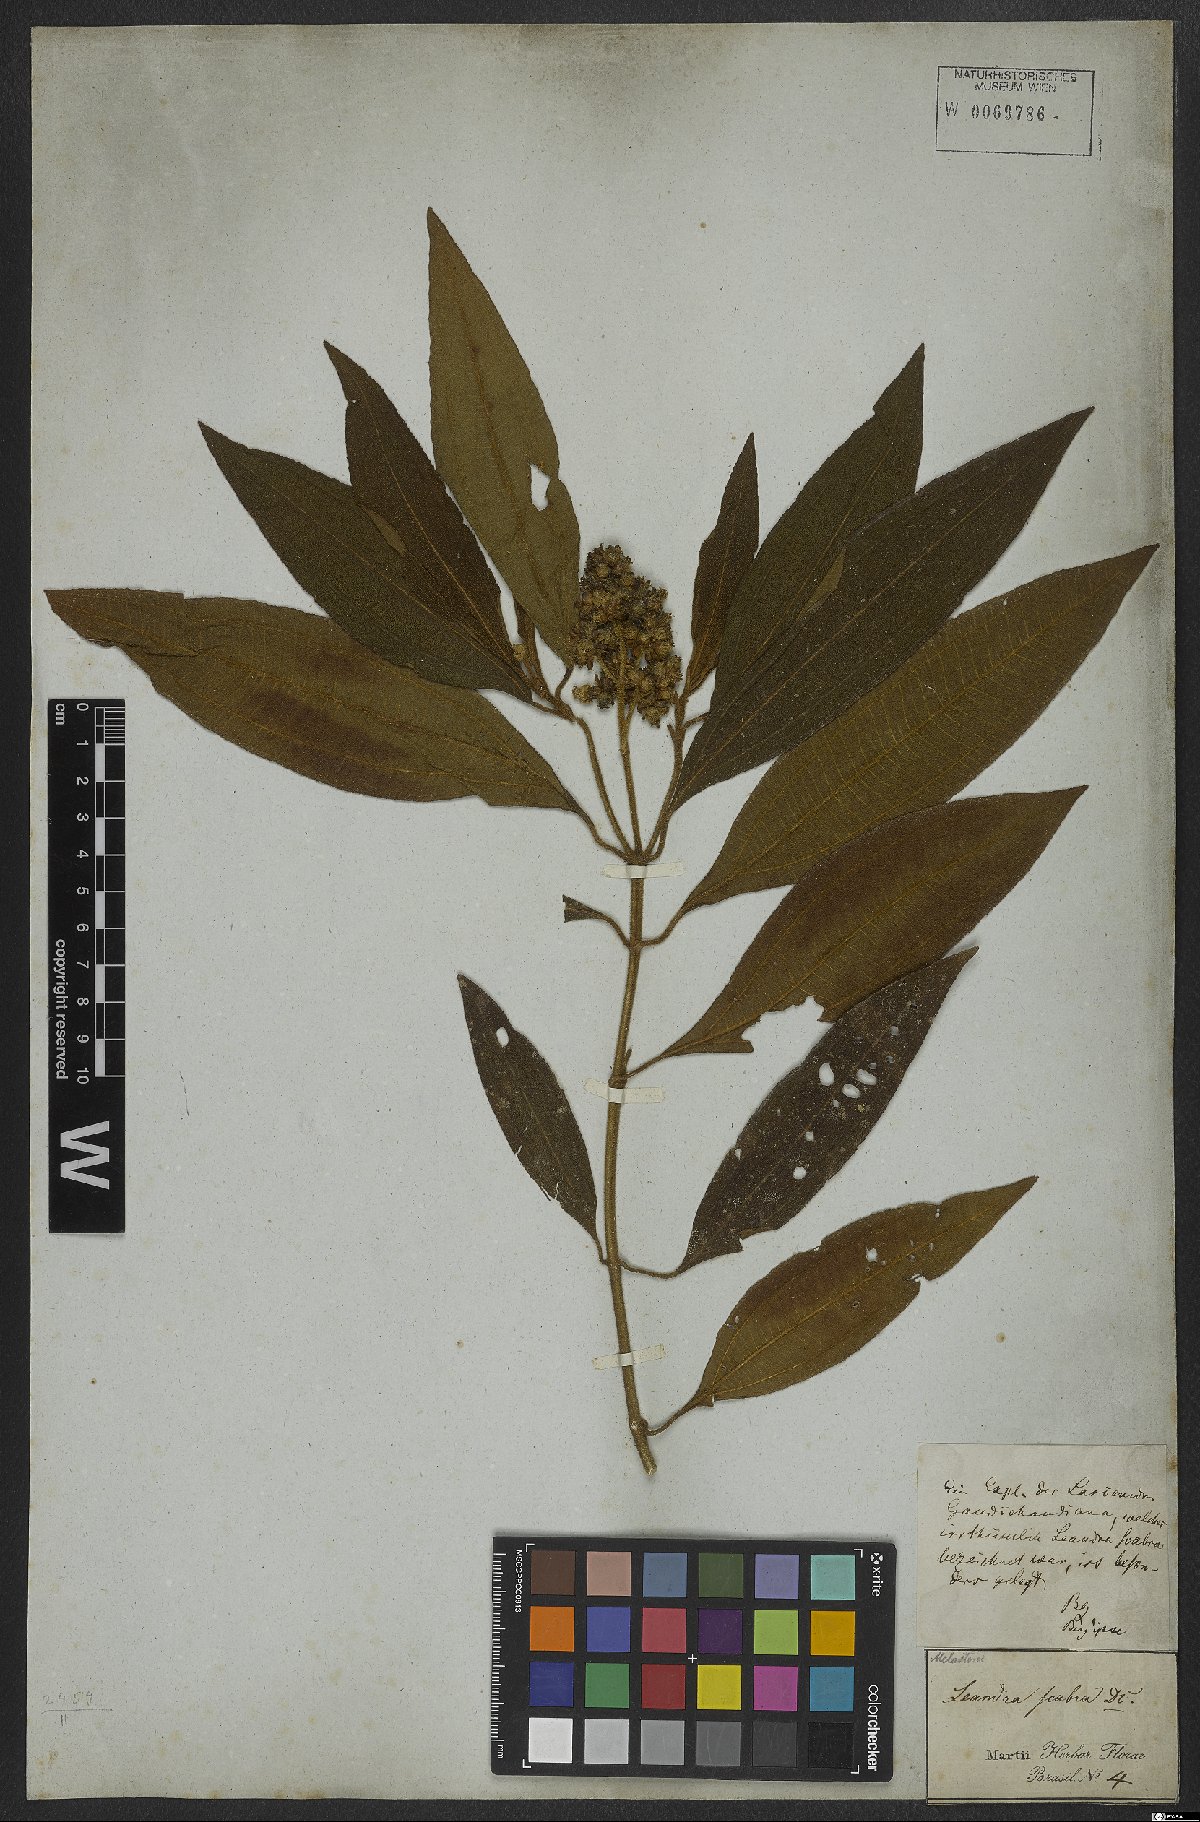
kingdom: Plantae
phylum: Tracheophyta
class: Magnoliopsida
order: Myrtales
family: Melastomataceae
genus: Miconia
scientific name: Miconia melastomoides
